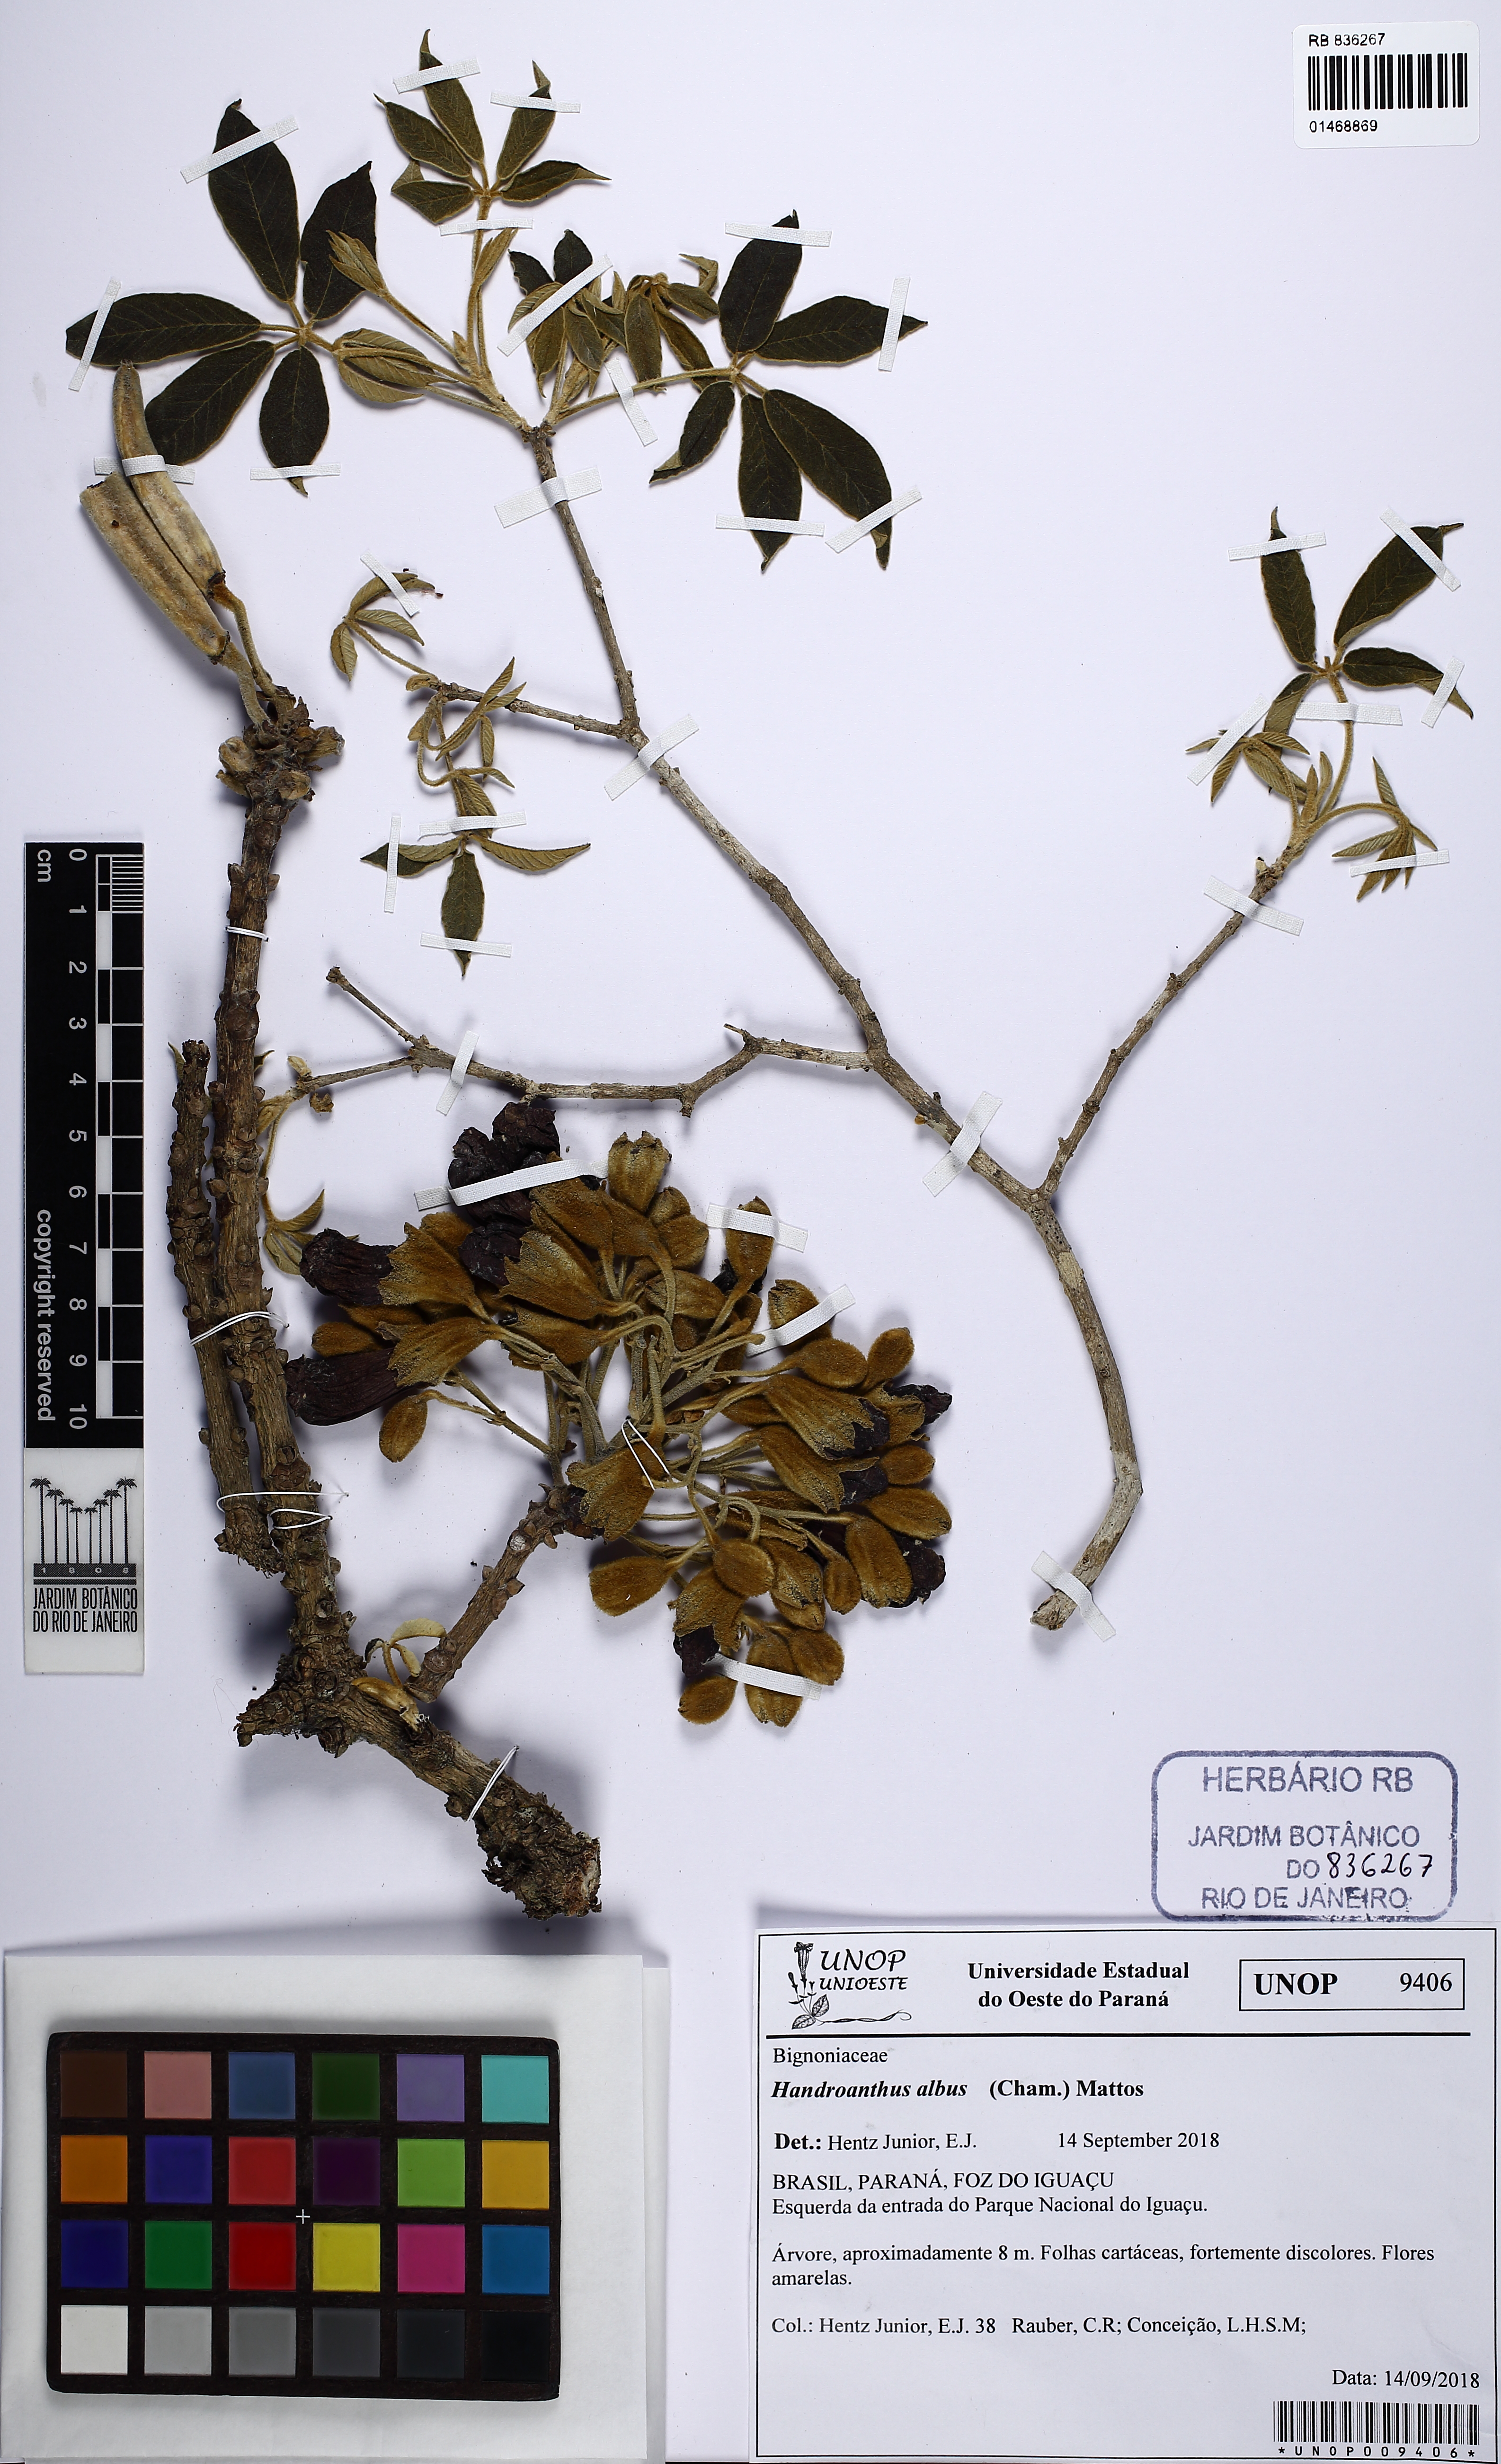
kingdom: Plantae
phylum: Tracheophyta
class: Magnoliopsida
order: Lamiales
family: Bignoniaceae
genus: Handroanthus
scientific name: Handroanthus albus
